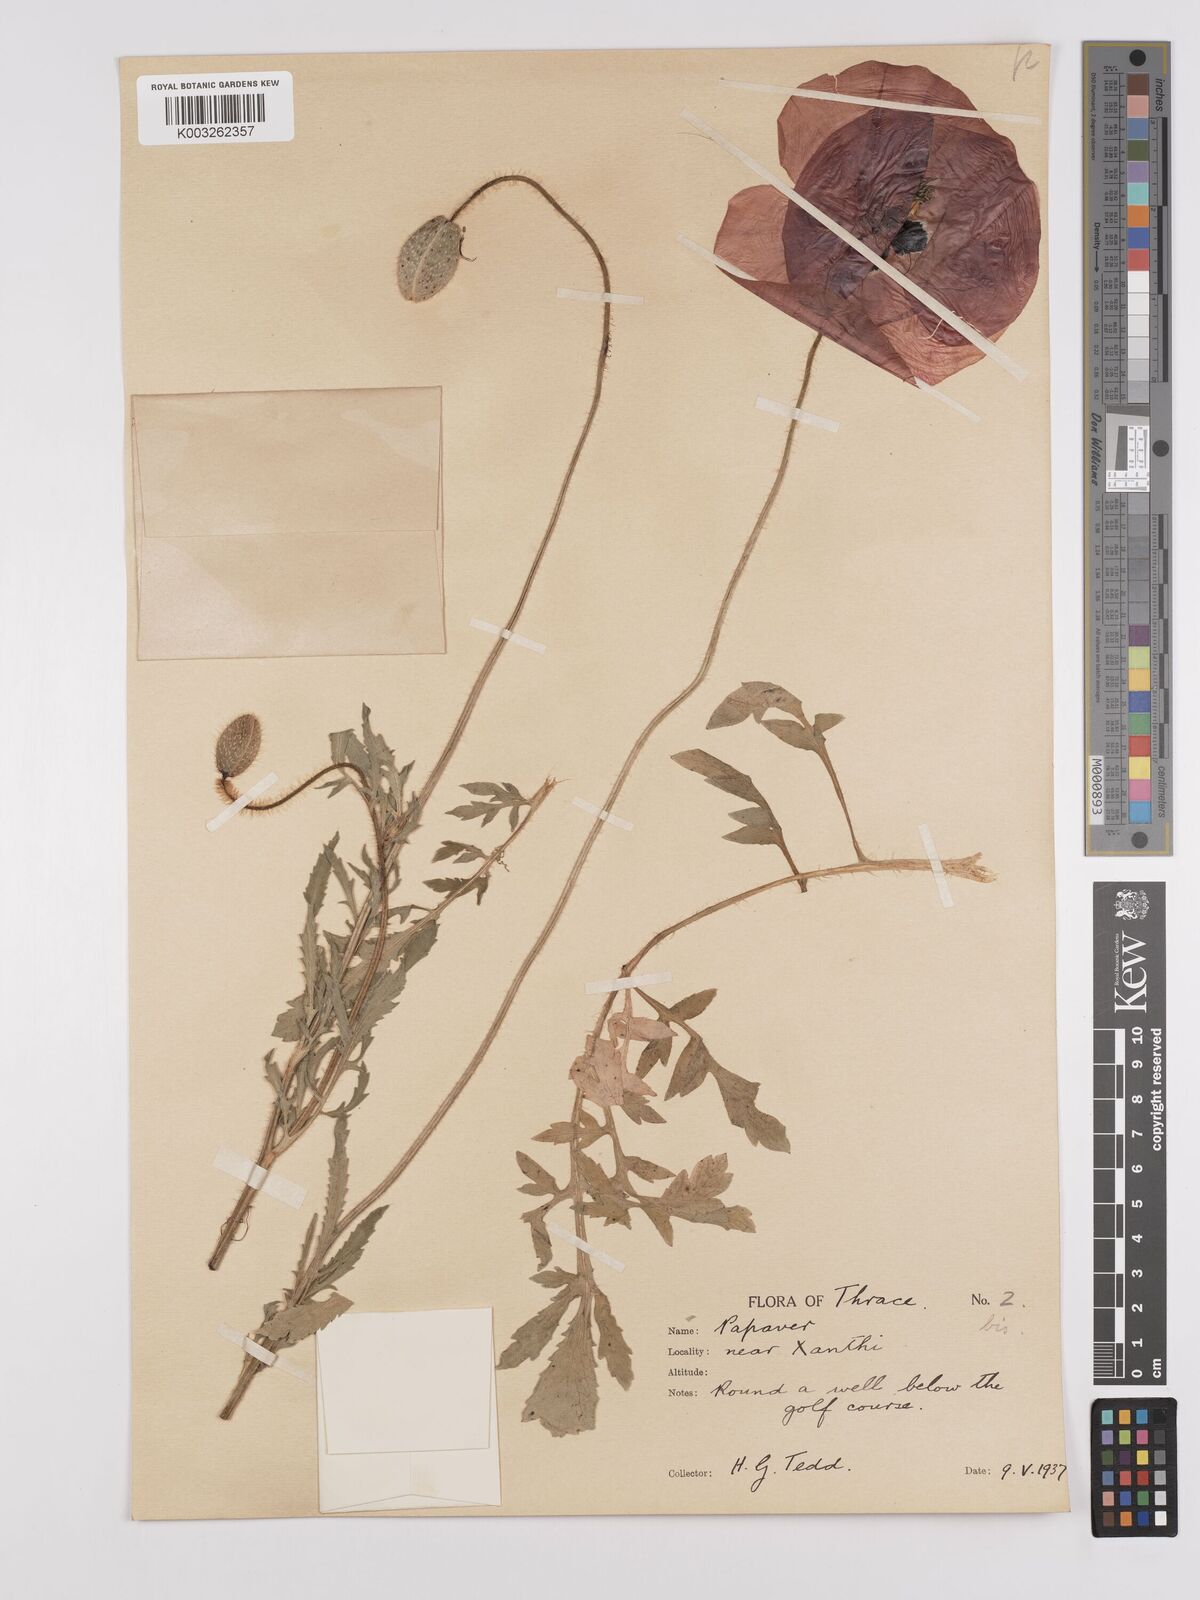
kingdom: Plantae
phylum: Tracheophyta
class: Magnoliopsida
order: Ranunculales
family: Papaveraceae
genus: Papaver
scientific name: Papaver rhoeas
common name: Corn poppy
